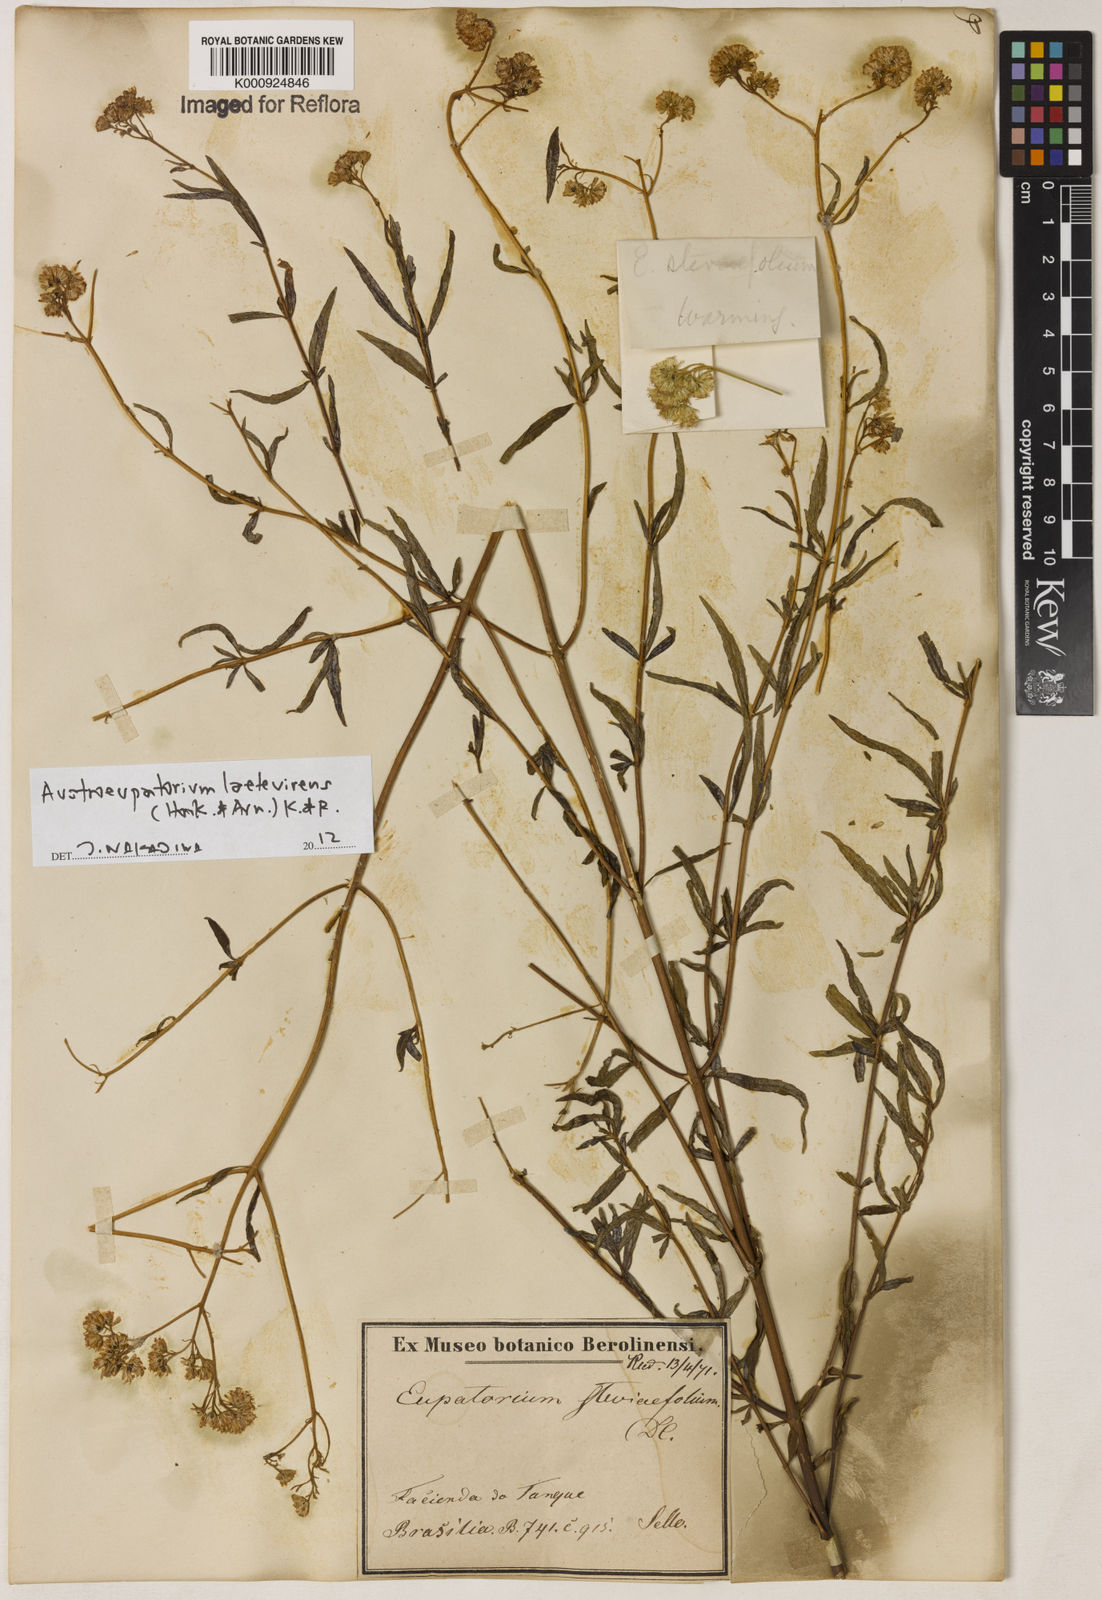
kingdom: Plantae
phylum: Tracheophyta
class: Magnoliopsida
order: Asterales
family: Asteraceae
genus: Austroeupatorium
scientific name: Austroeupatorium laetevirens
